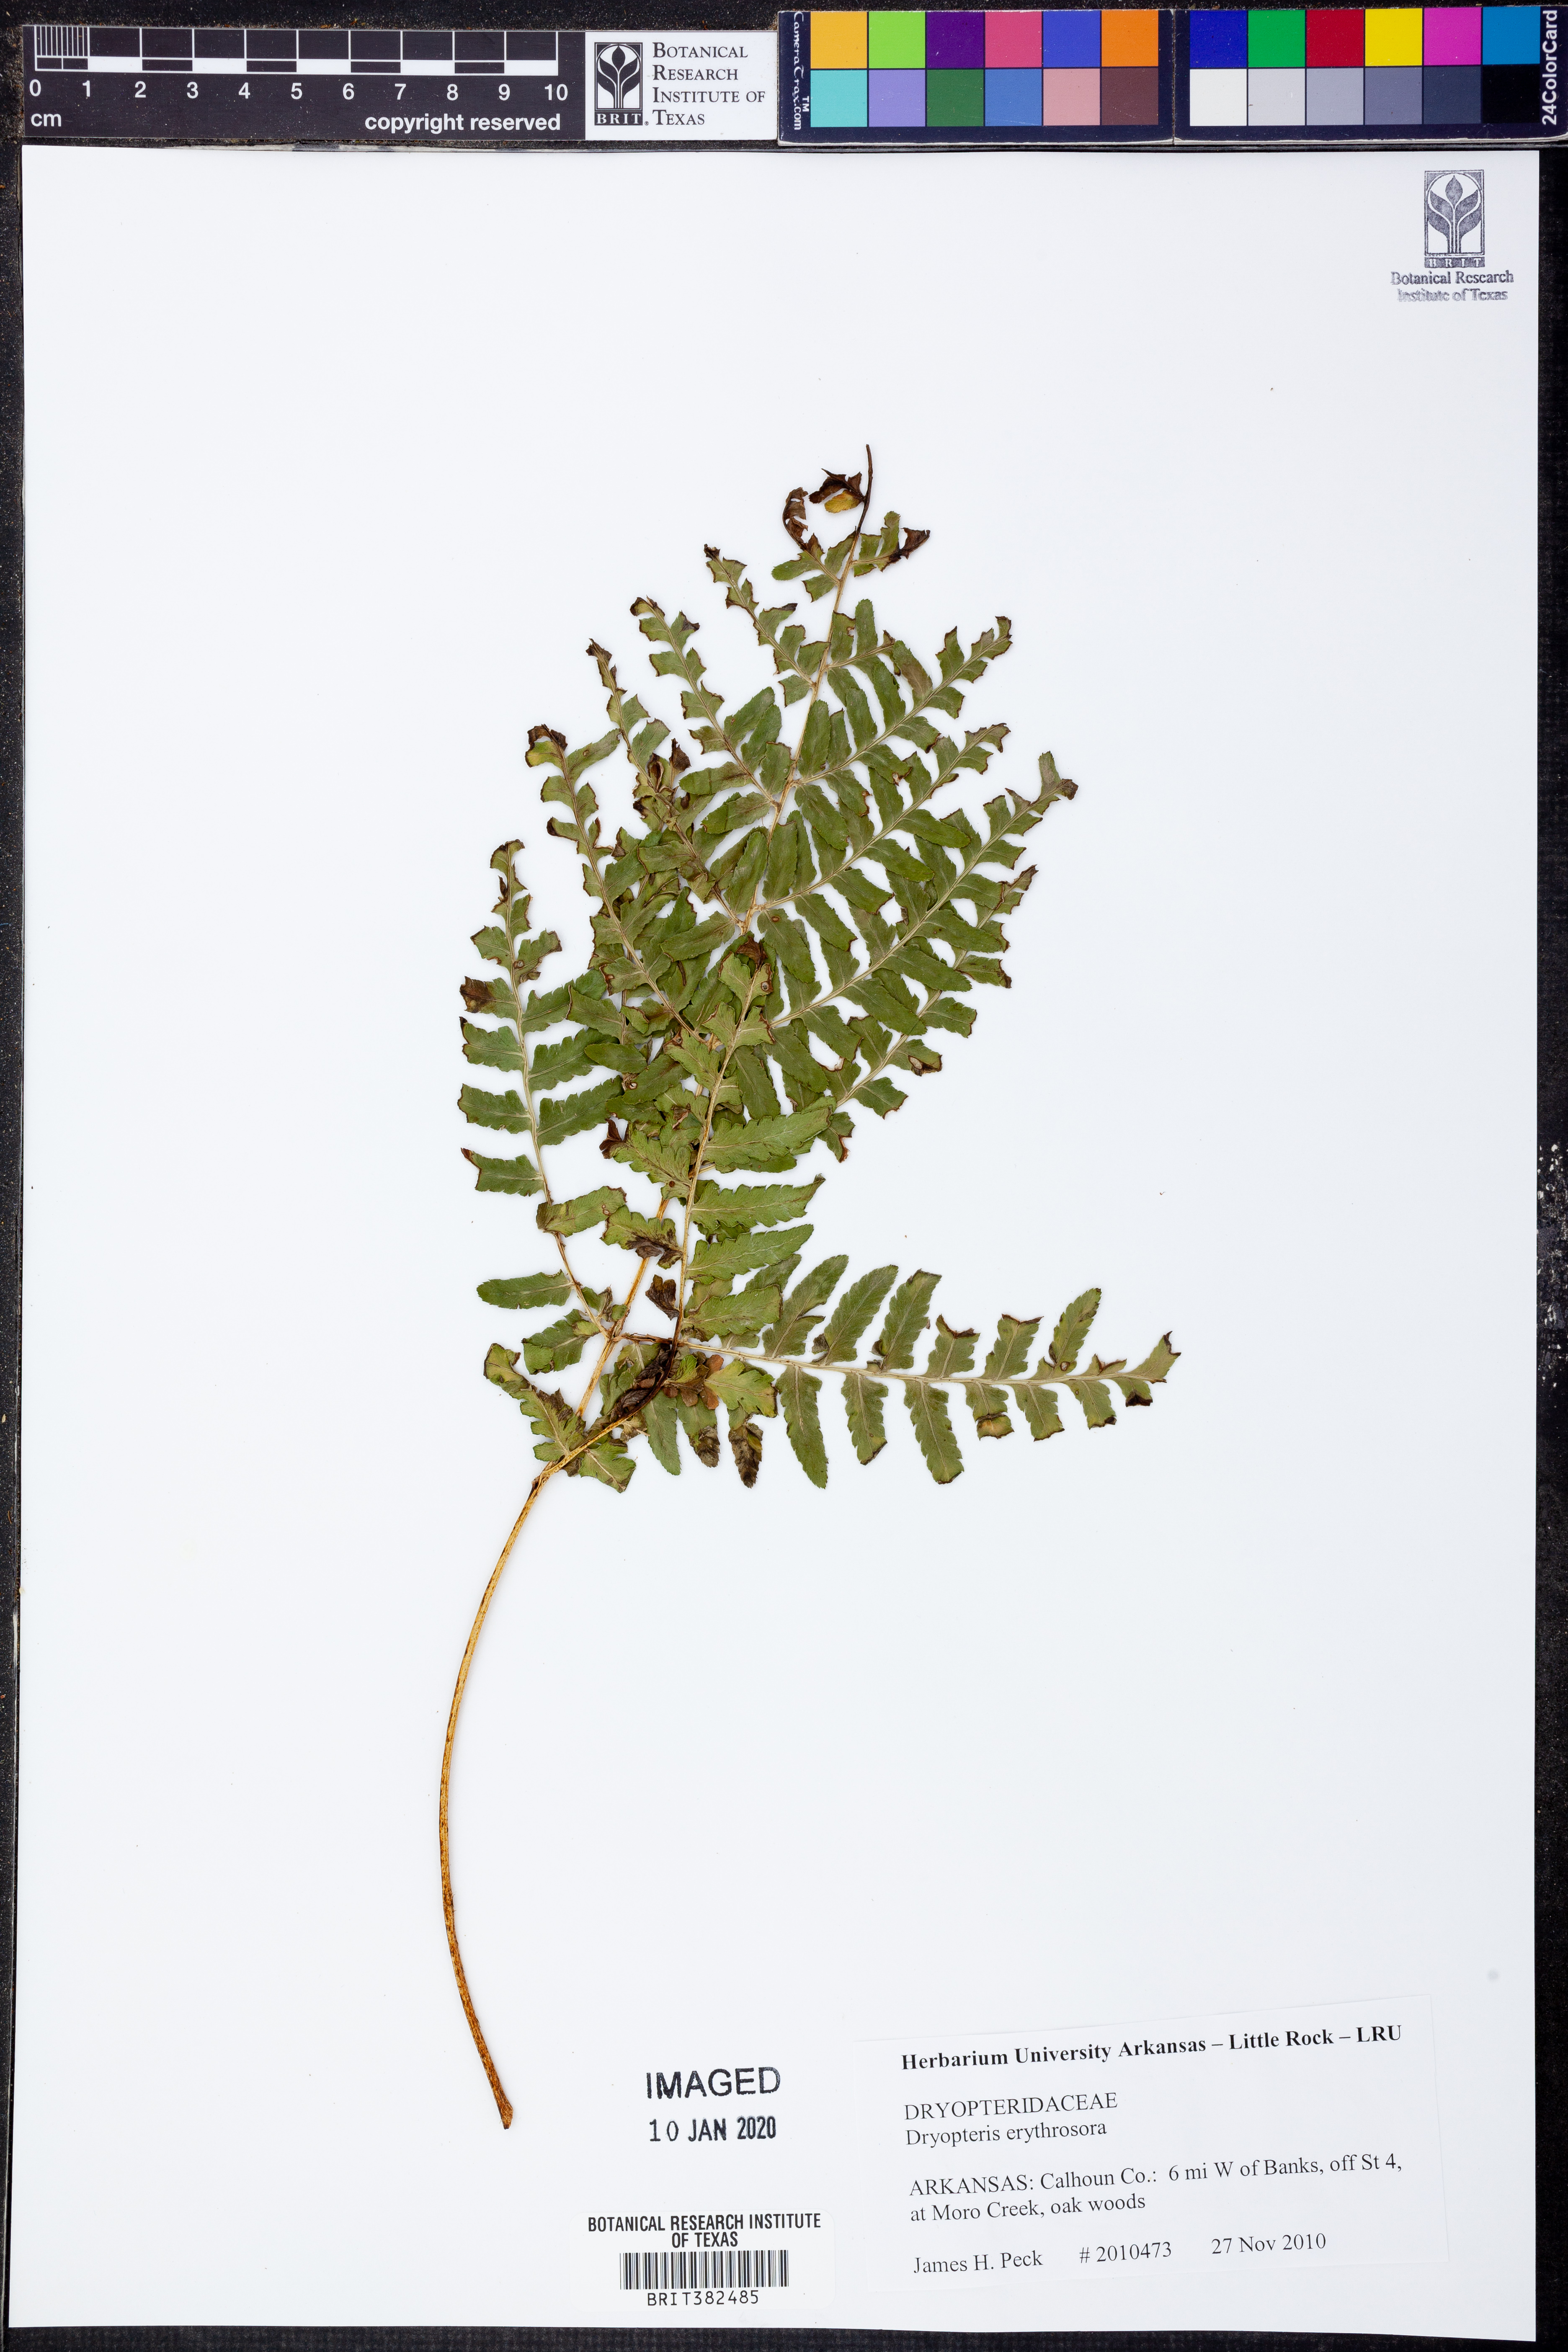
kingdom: Plantae
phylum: Tracheophyta
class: Polypodiopsida
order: Polypodiales
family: Dryopteridaceae
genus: Dryopteris
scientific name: Dryopteris erythrosora
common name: Autumn fern
